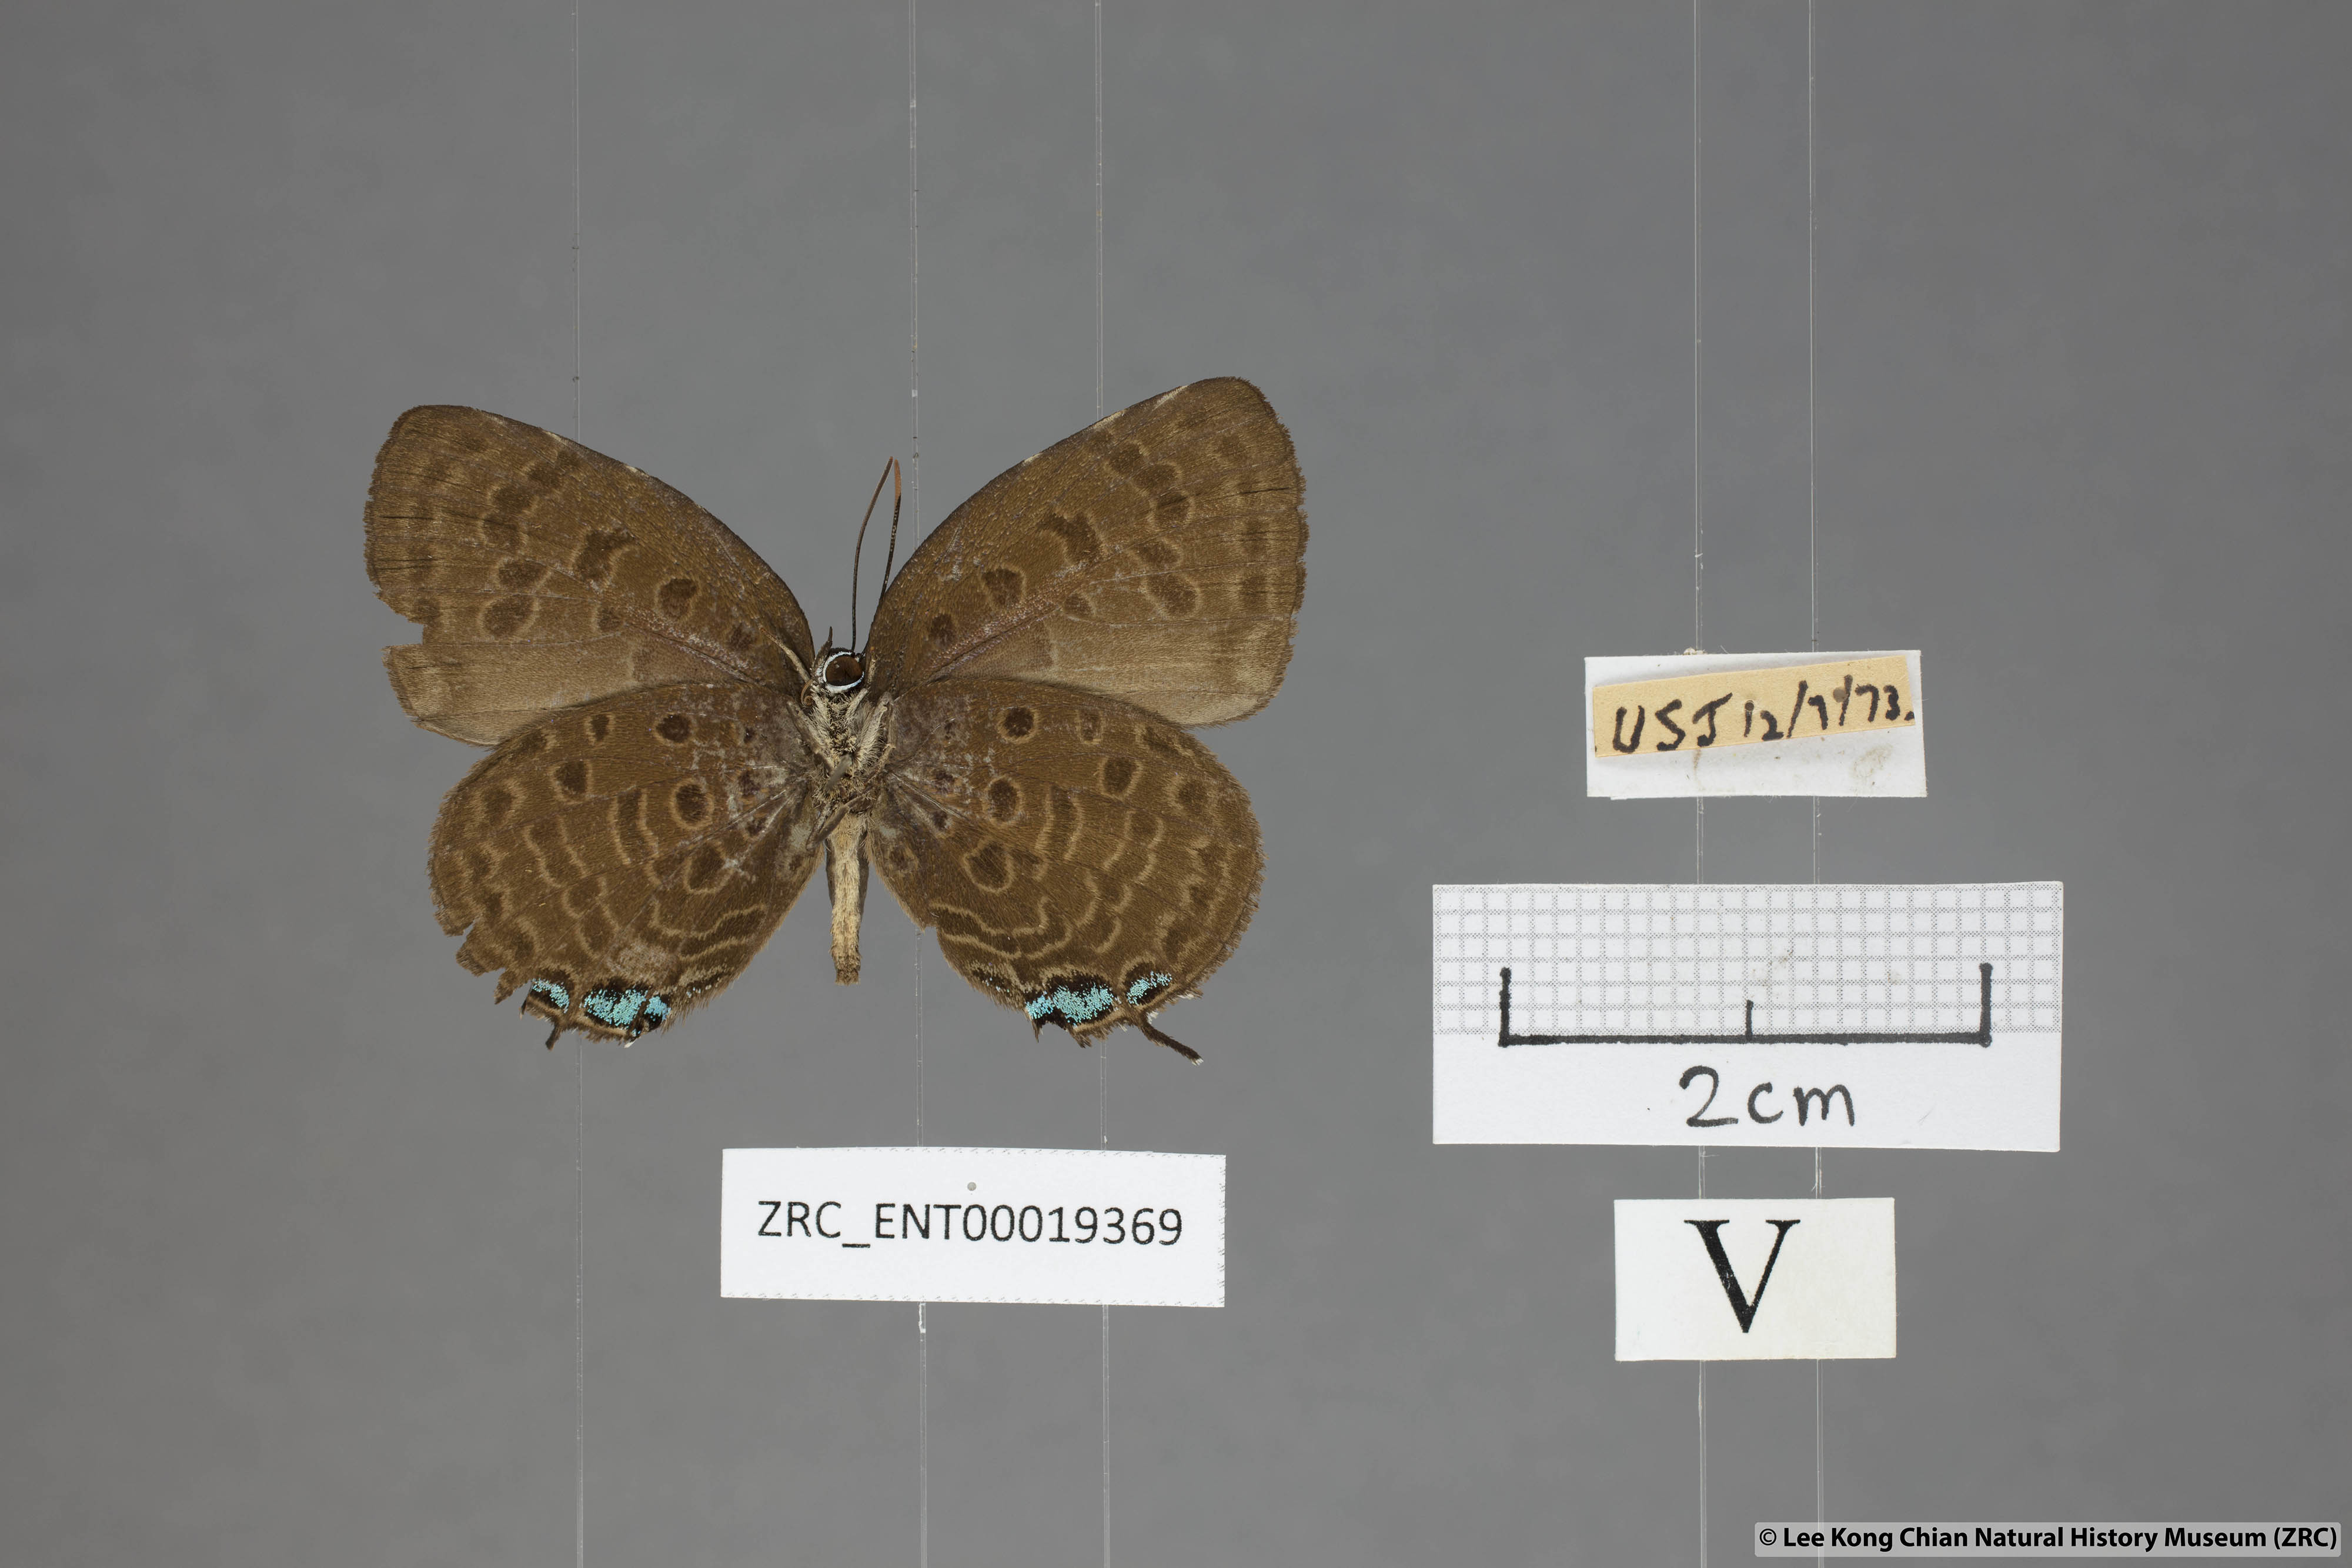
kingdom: Animalia
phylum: Arthropoda
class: Insecta
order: Lepidoptera
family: Lycaenidae
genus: Arhopala
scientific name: Arhopala delta
